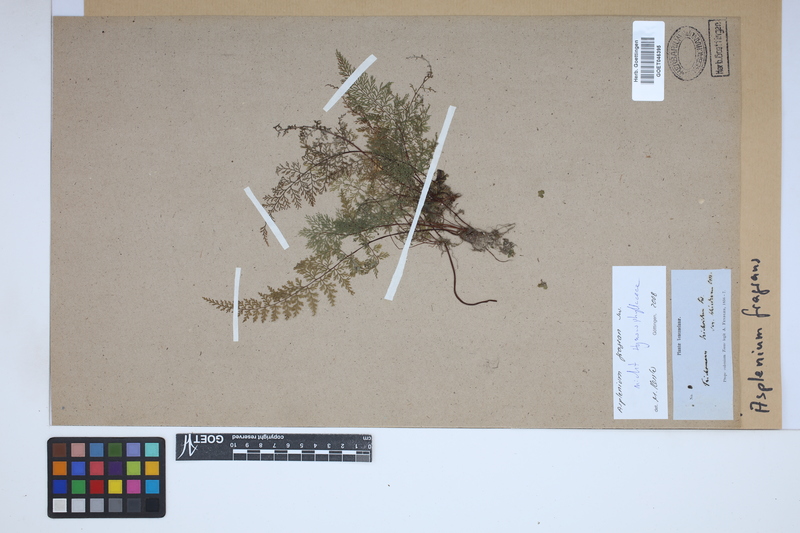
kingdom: Plantae
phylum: Tracheophyta
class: Polypodiopsida
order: Polypodiales
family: Aspleniaceae
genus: Asplenium
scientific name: Asplenium fragrans
